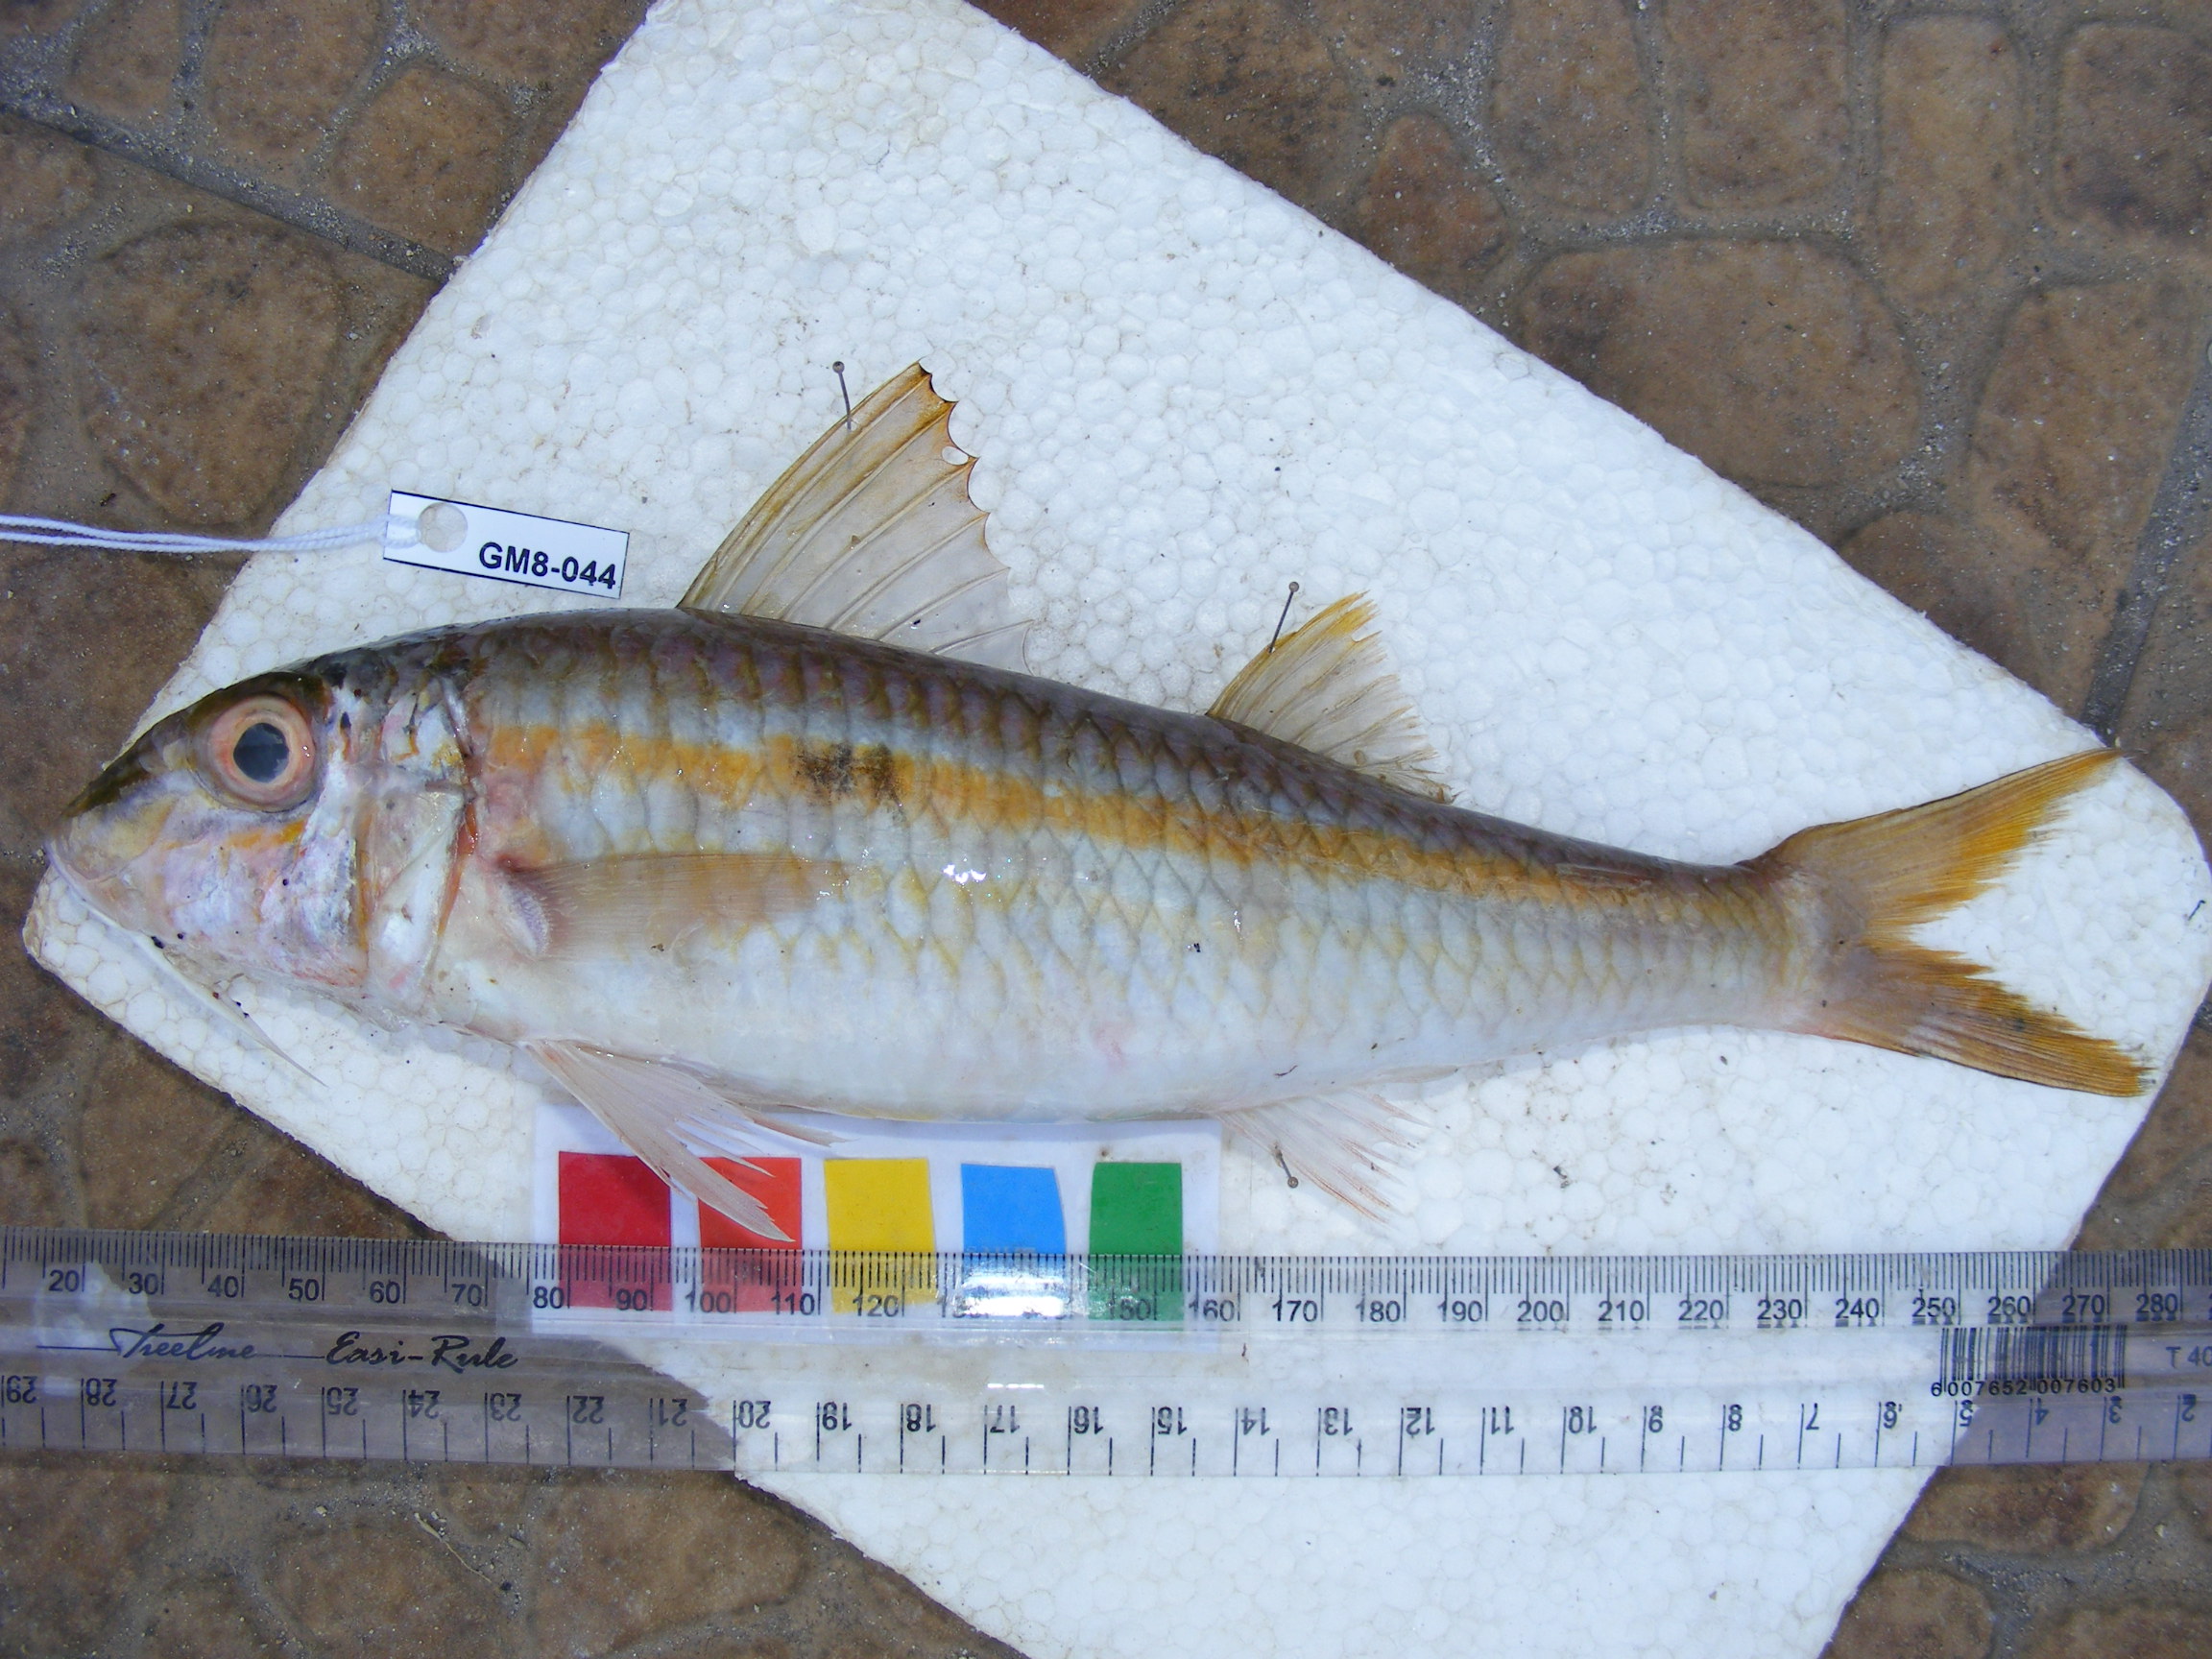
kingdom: Animalia
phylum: Chordata
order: Perciformes
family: Mullidae
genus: Mulloidichthys
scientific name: Mulloidichthys flavolineatus
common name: Yellowstripe goatfish
